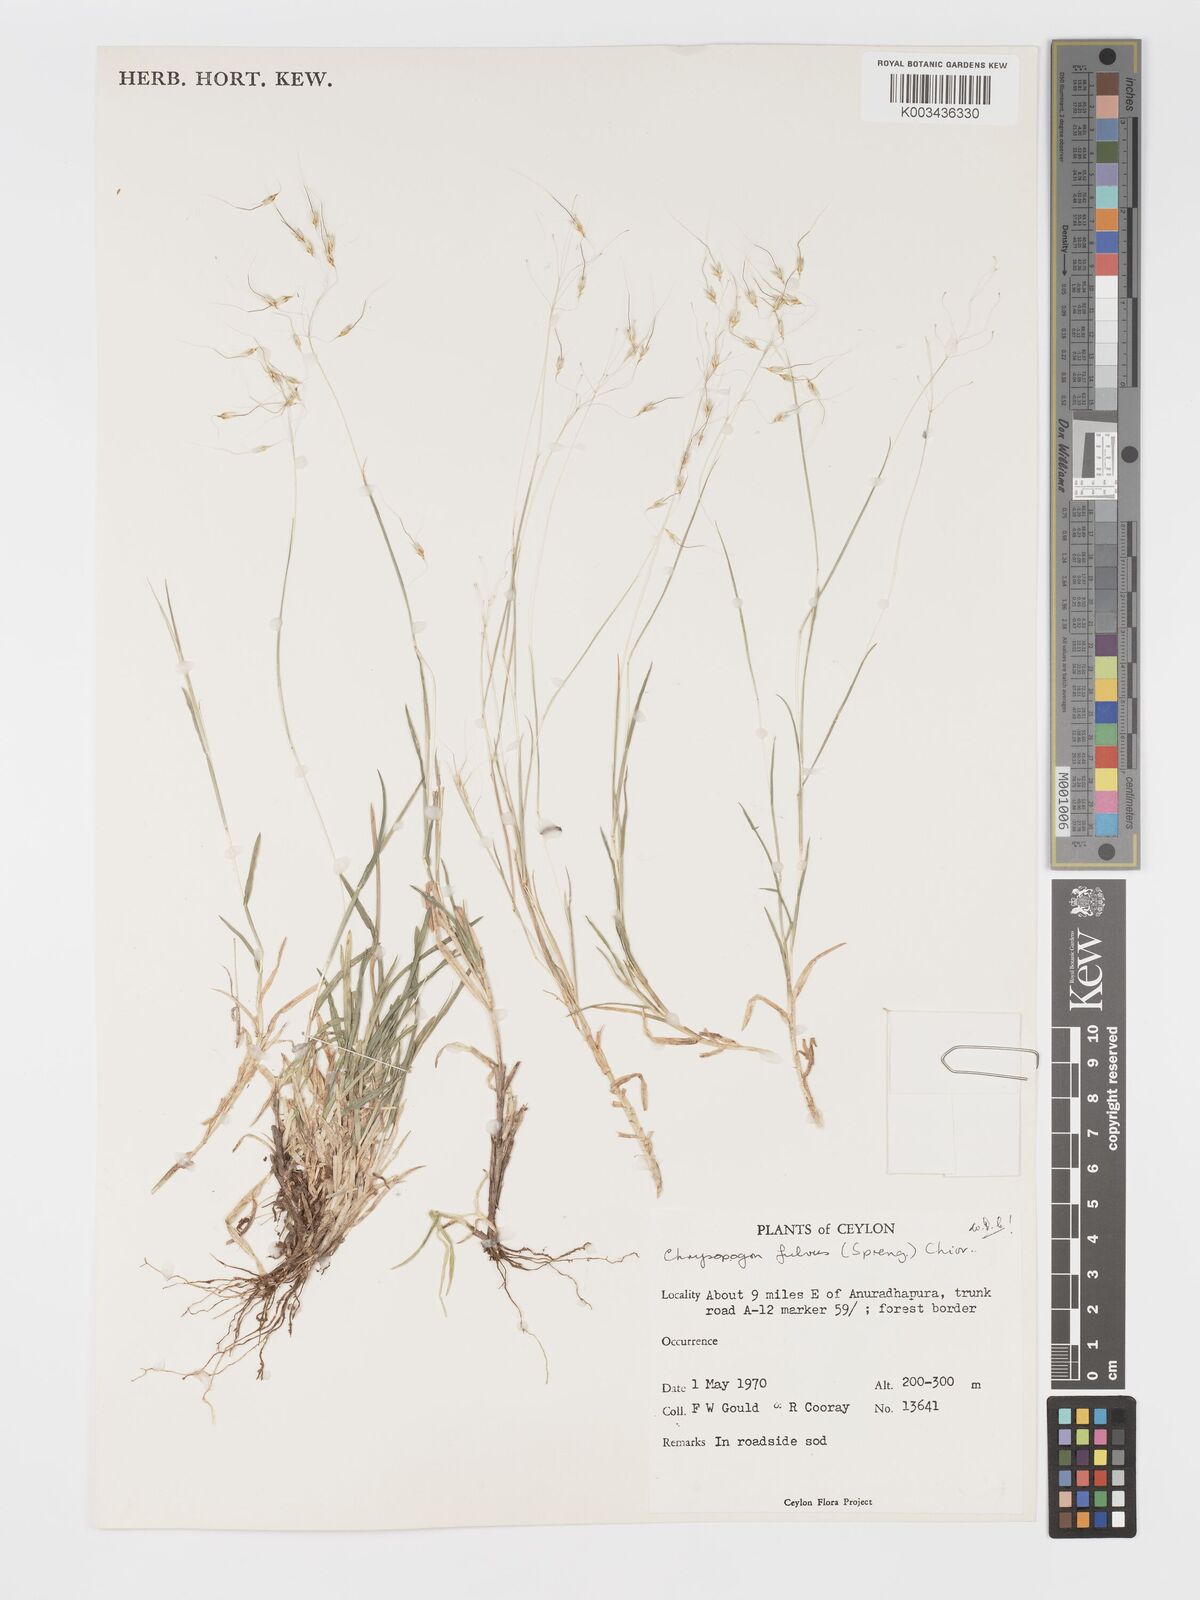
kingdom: Plantae
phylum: Tracheophyta
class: Liliopsida
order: Poales
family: Poaceae
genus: Chrysopogon
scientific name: Chrysopogon fulvus
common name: Red false beardgrass
